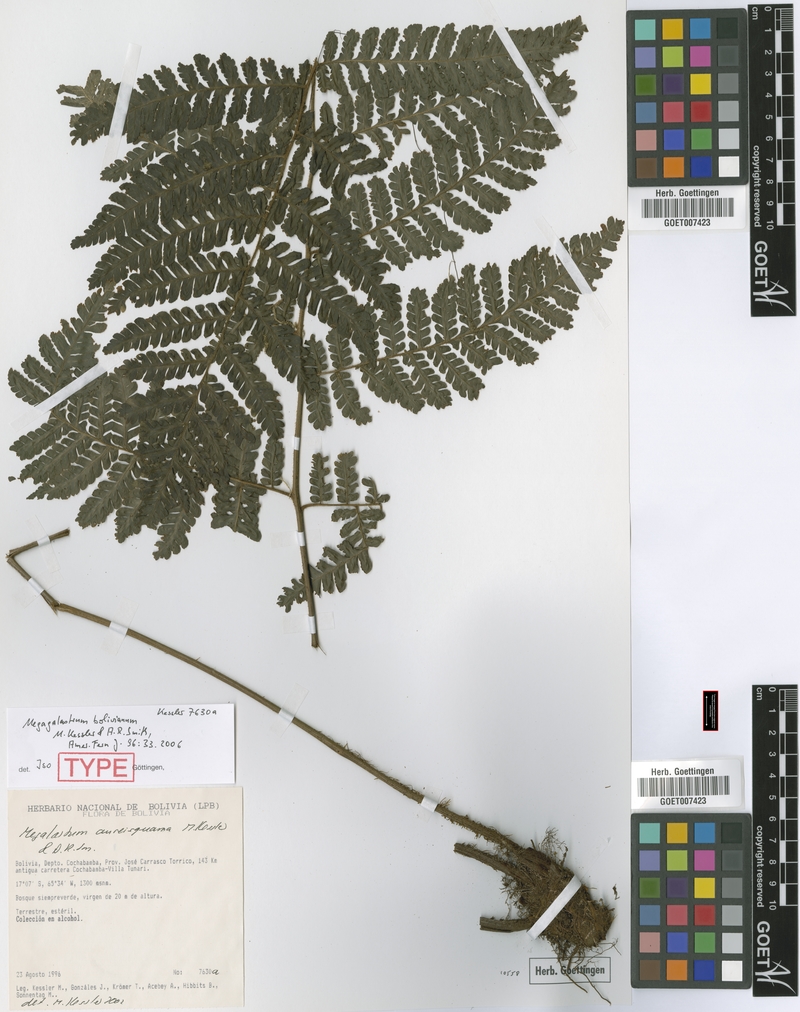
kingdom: Plantae
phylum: Tracheophyta
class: Polypodiopsida
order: Polypodiales
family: Dryopteridaceae
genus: Megalastrum
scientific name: Megalastrum bolivianum
